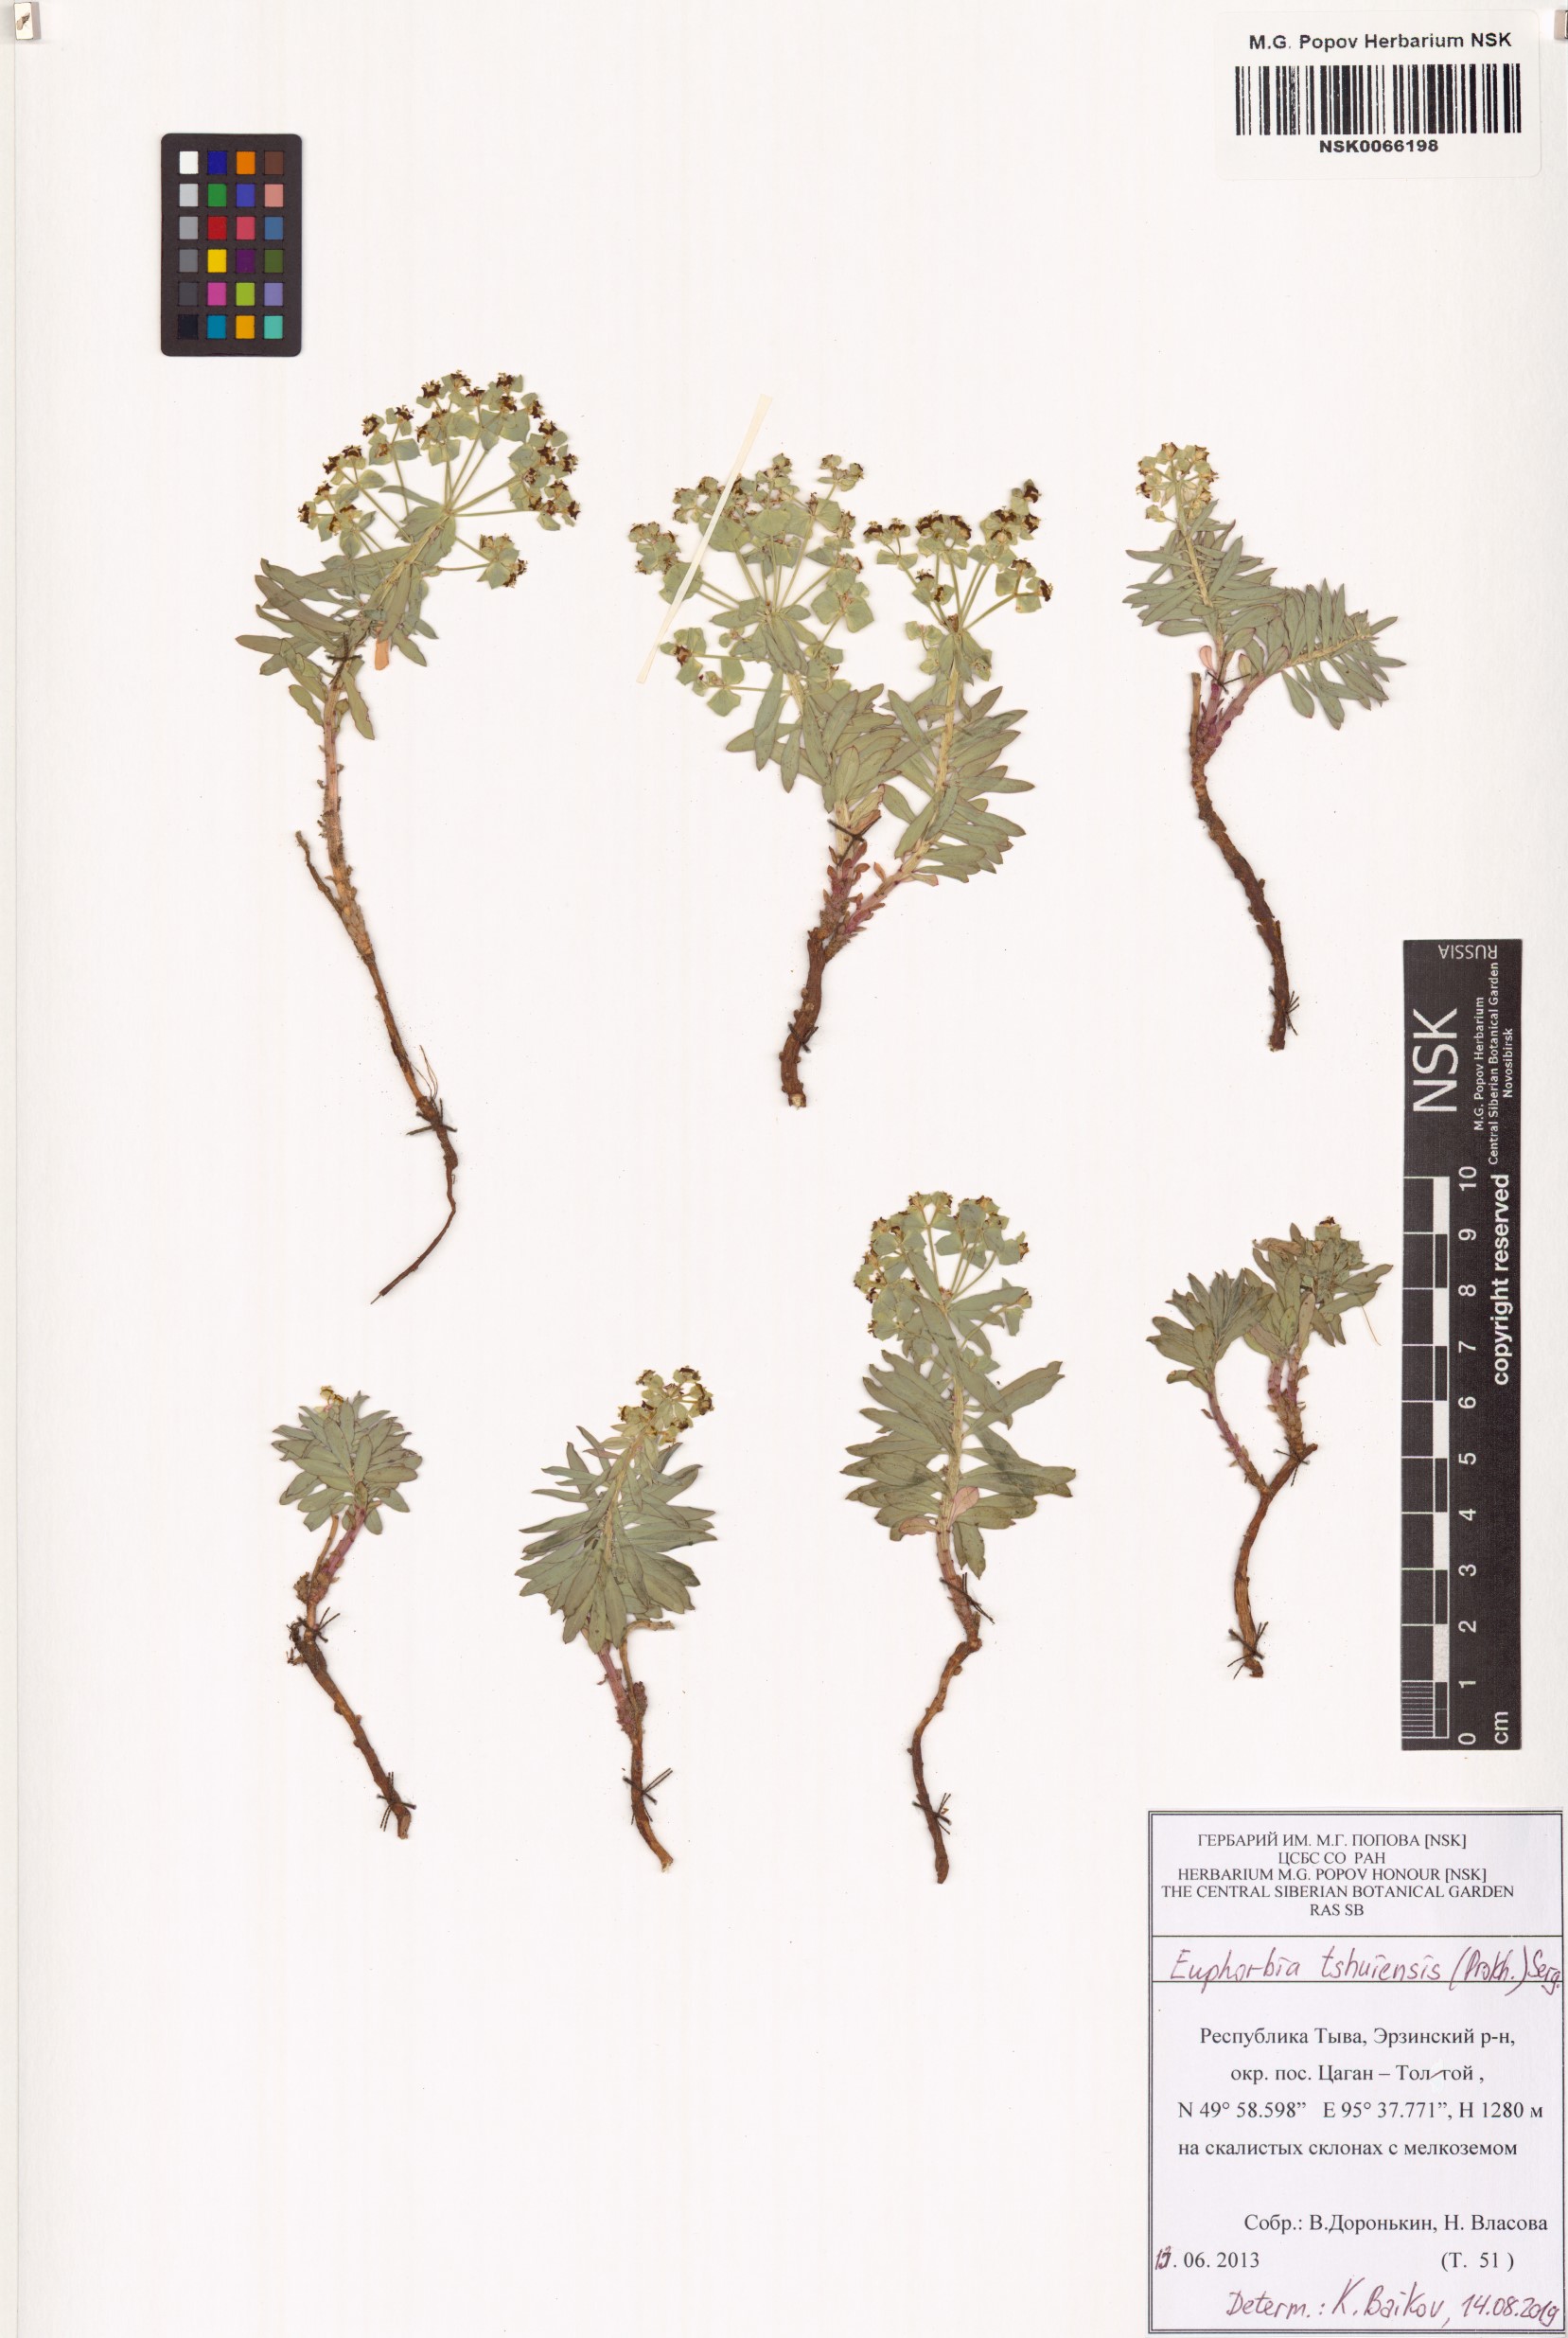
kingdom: Plantae
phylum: Tracheophyta
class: Magnoliopsida
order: Malpighiales
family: Euphorbiaceae
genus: Euphorbia
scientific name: Euphorbia tshuiensis
